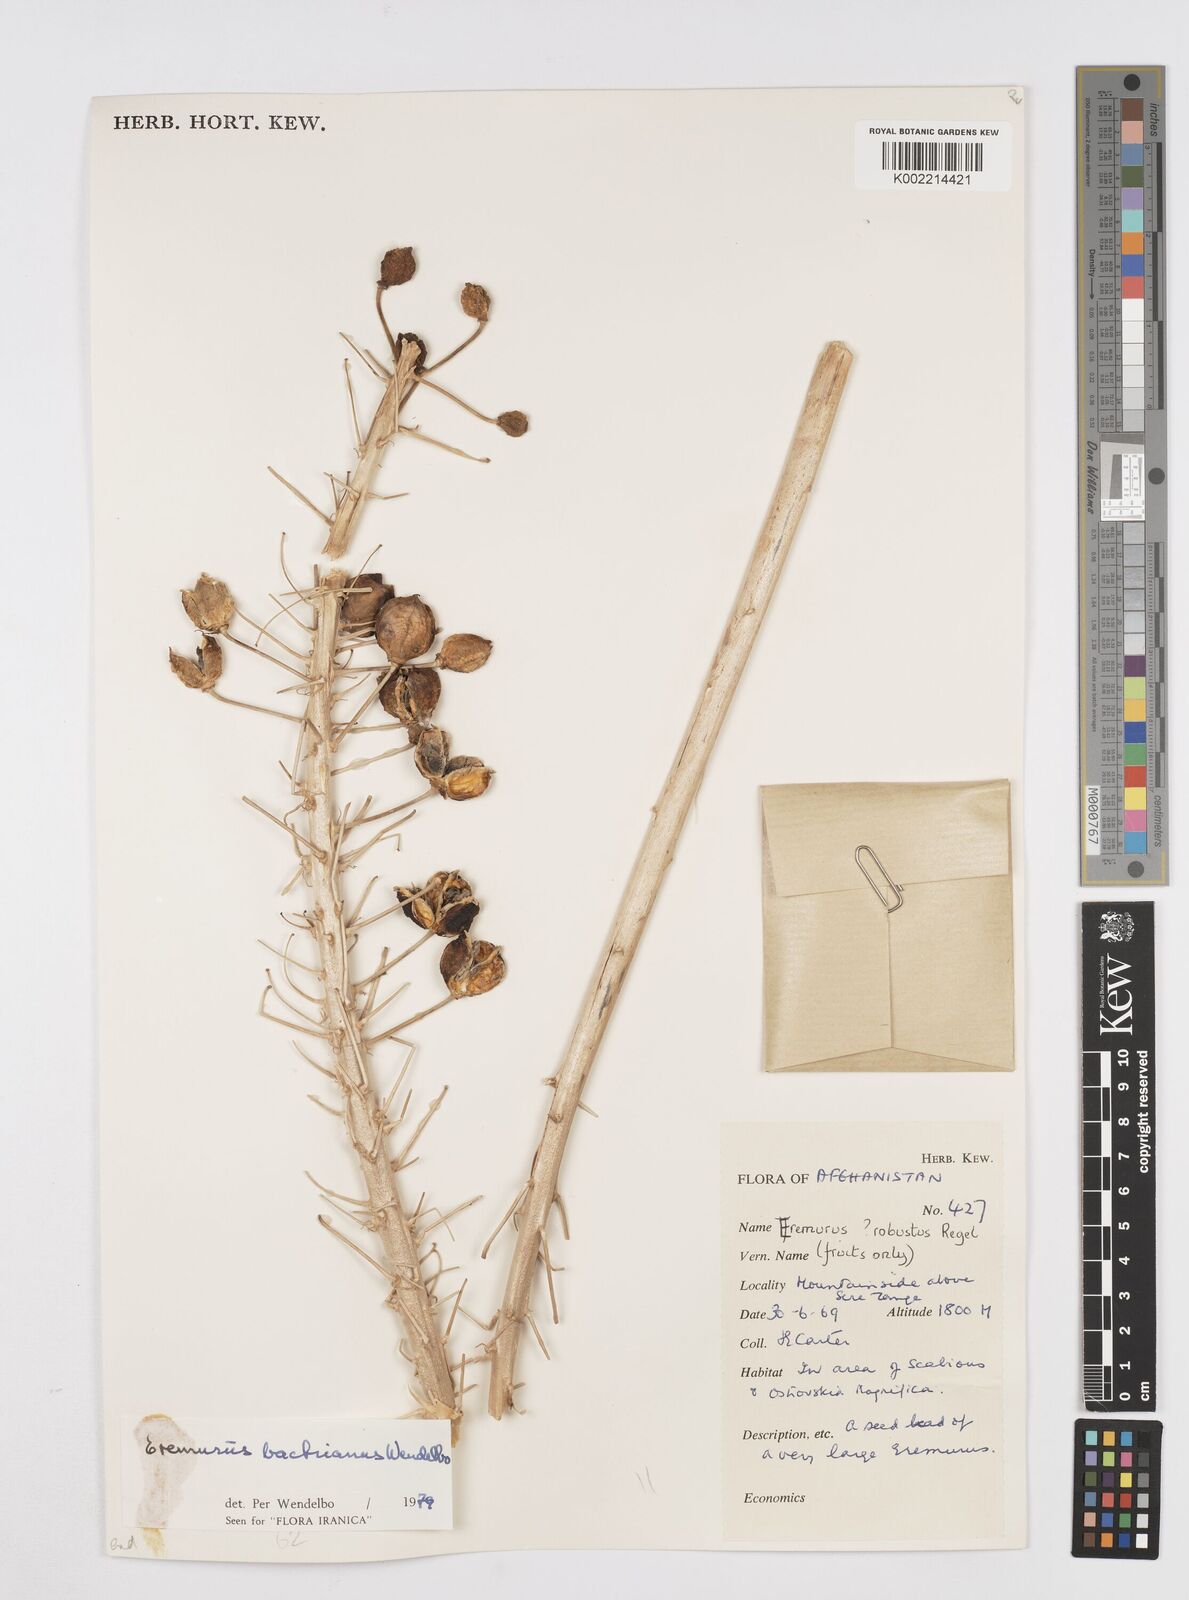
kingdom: Plantae
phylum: Tracheophyta
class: Liliopsida
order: Asparagales
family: Asphodelaceae
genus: Eremurus
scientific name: Eremurus bactrianus
